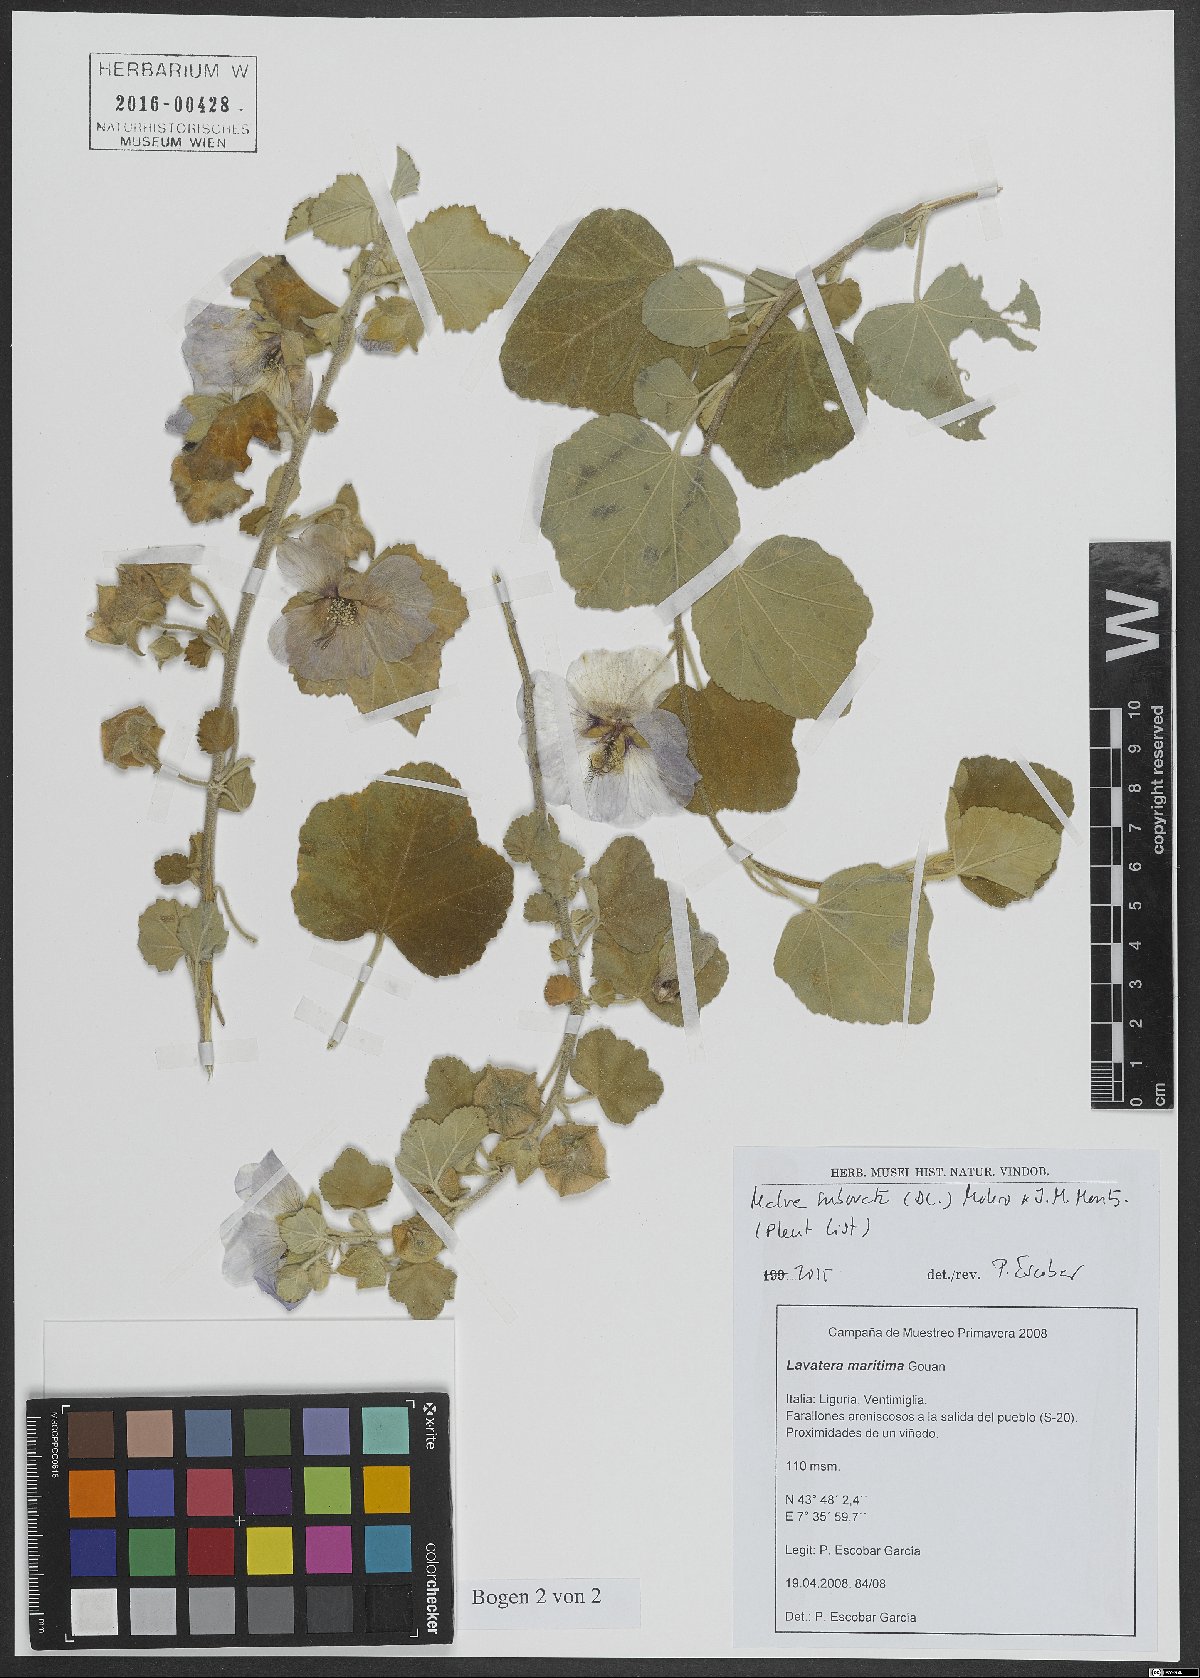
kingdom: Plantae
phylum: Tracheophyta
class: Magnoliopsida
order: Malvales
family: Malvaceae
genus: Malva
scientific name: Malva subovata
